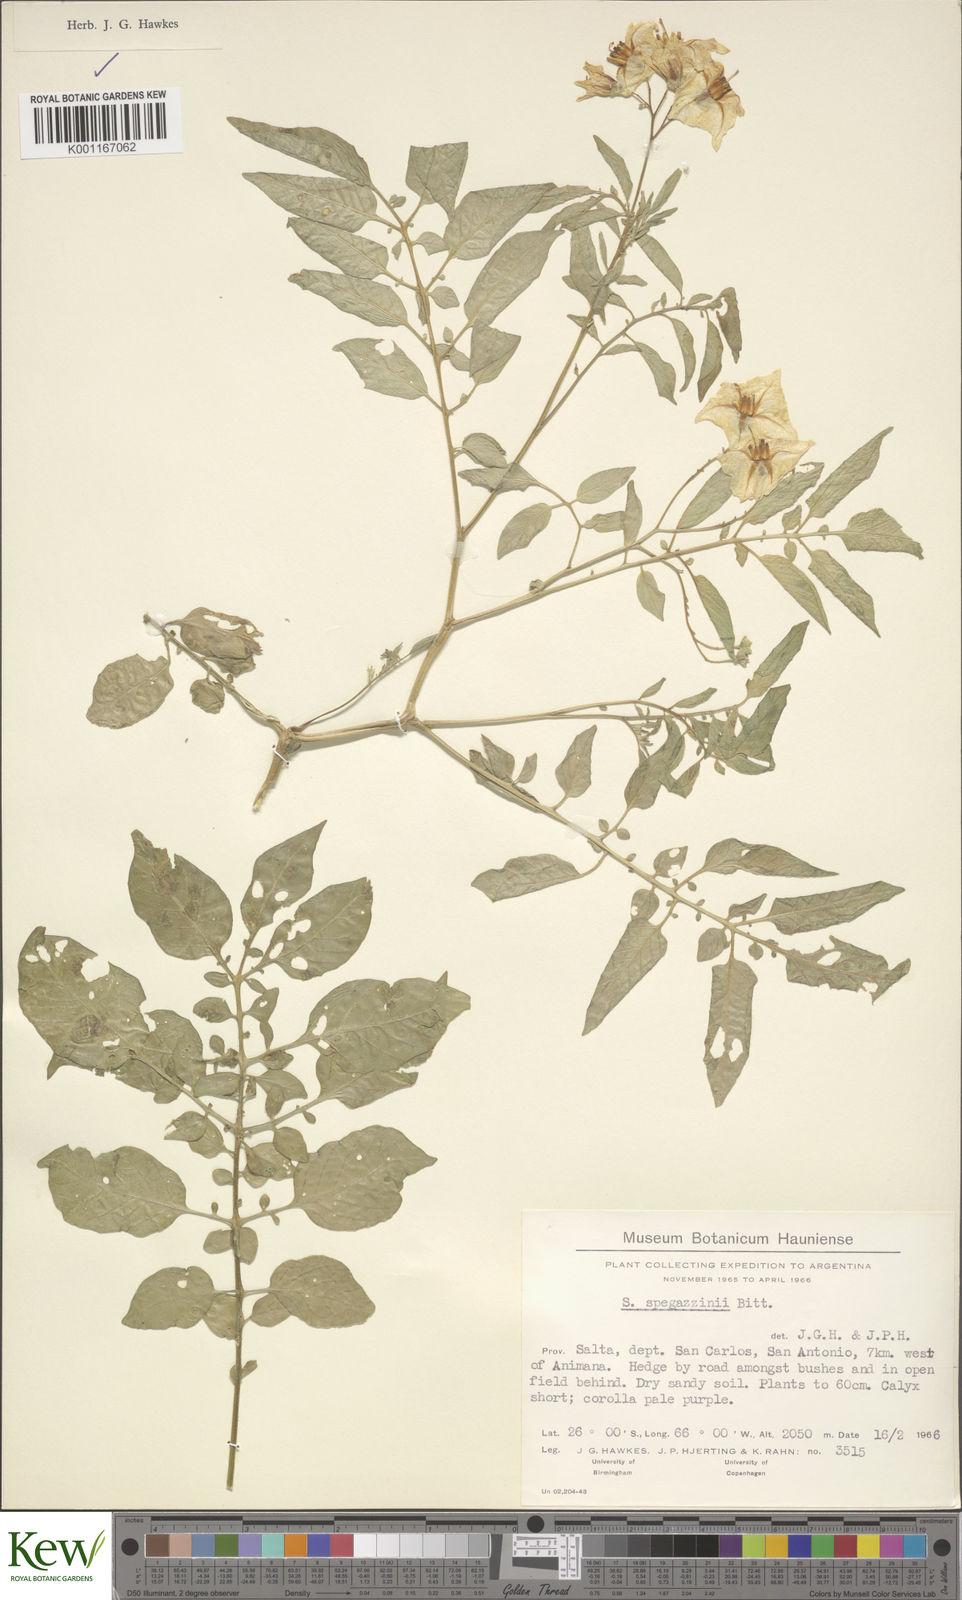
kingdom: Plantae
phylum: Tracheophyta
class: Magnoliopsida
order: Solanales
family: Solanaceae
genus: Solanum
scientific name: Solanum brevicaule
